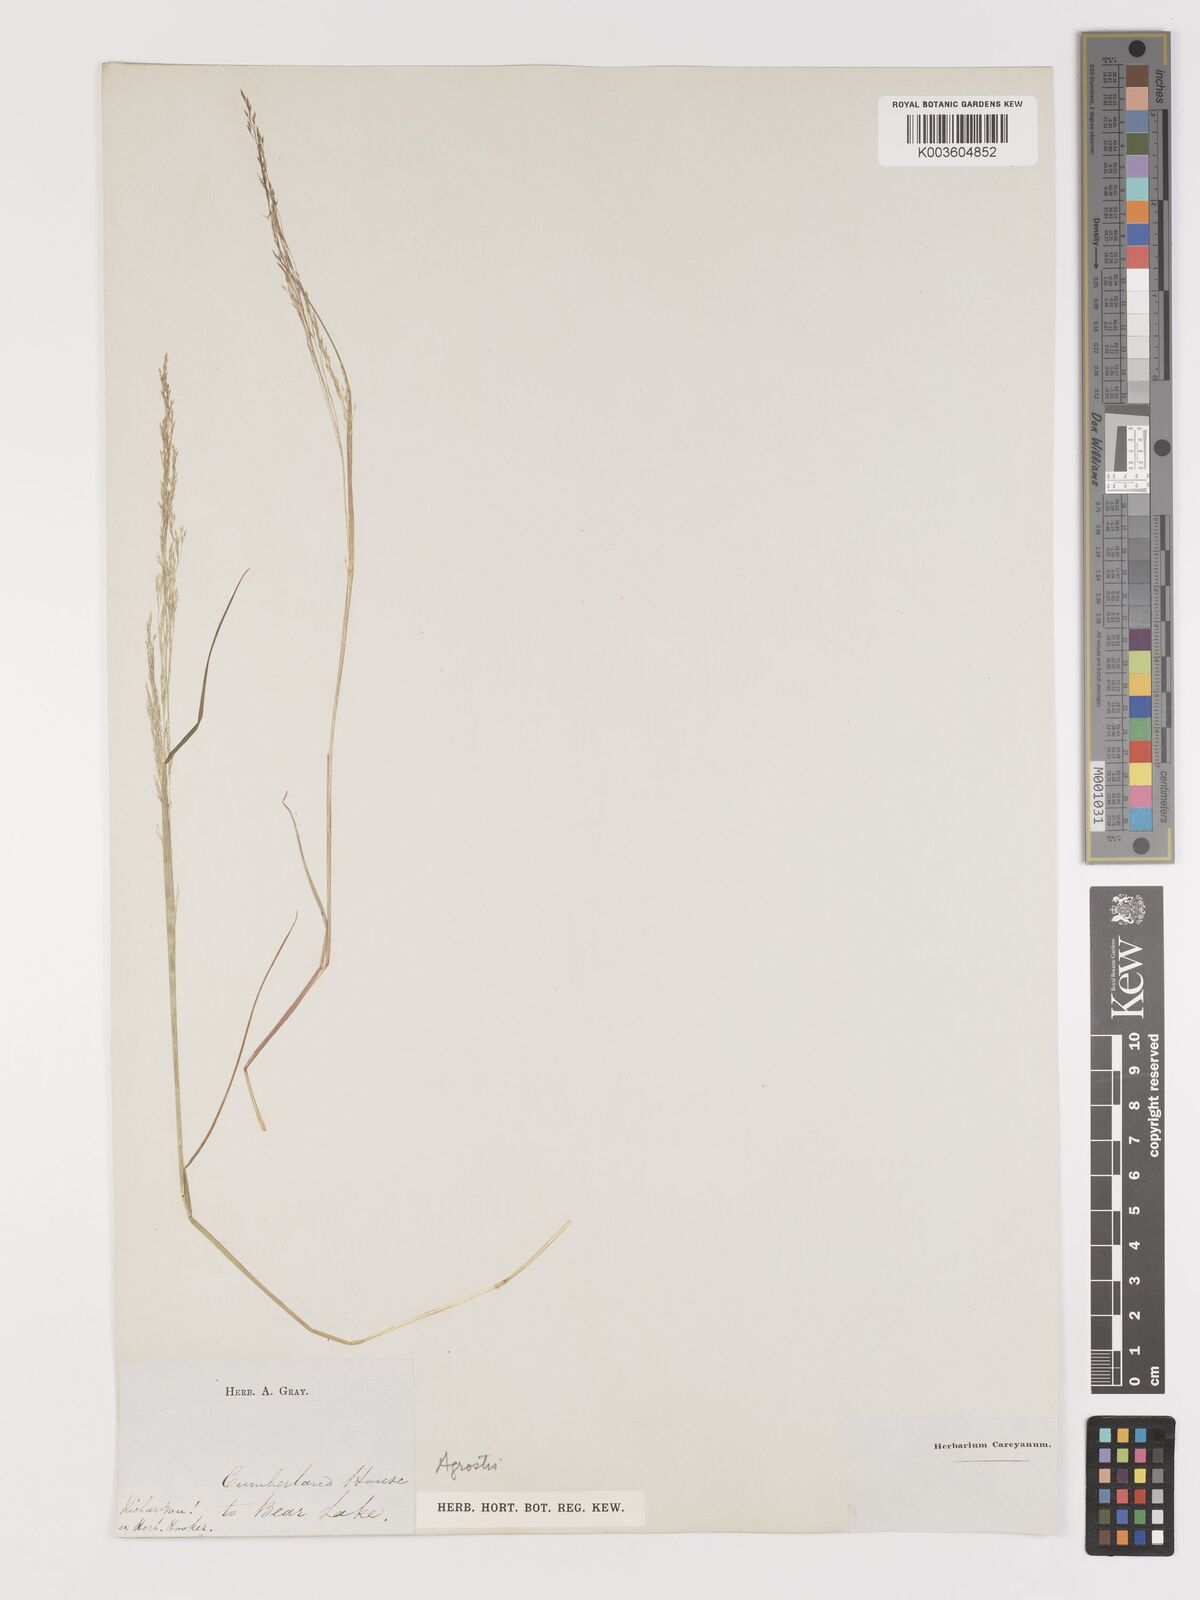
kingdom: Plantae
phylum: Tracheophyta
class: Liliopsida
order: Poales
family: Poaceae
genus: Agrostis
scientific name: Agrostis
